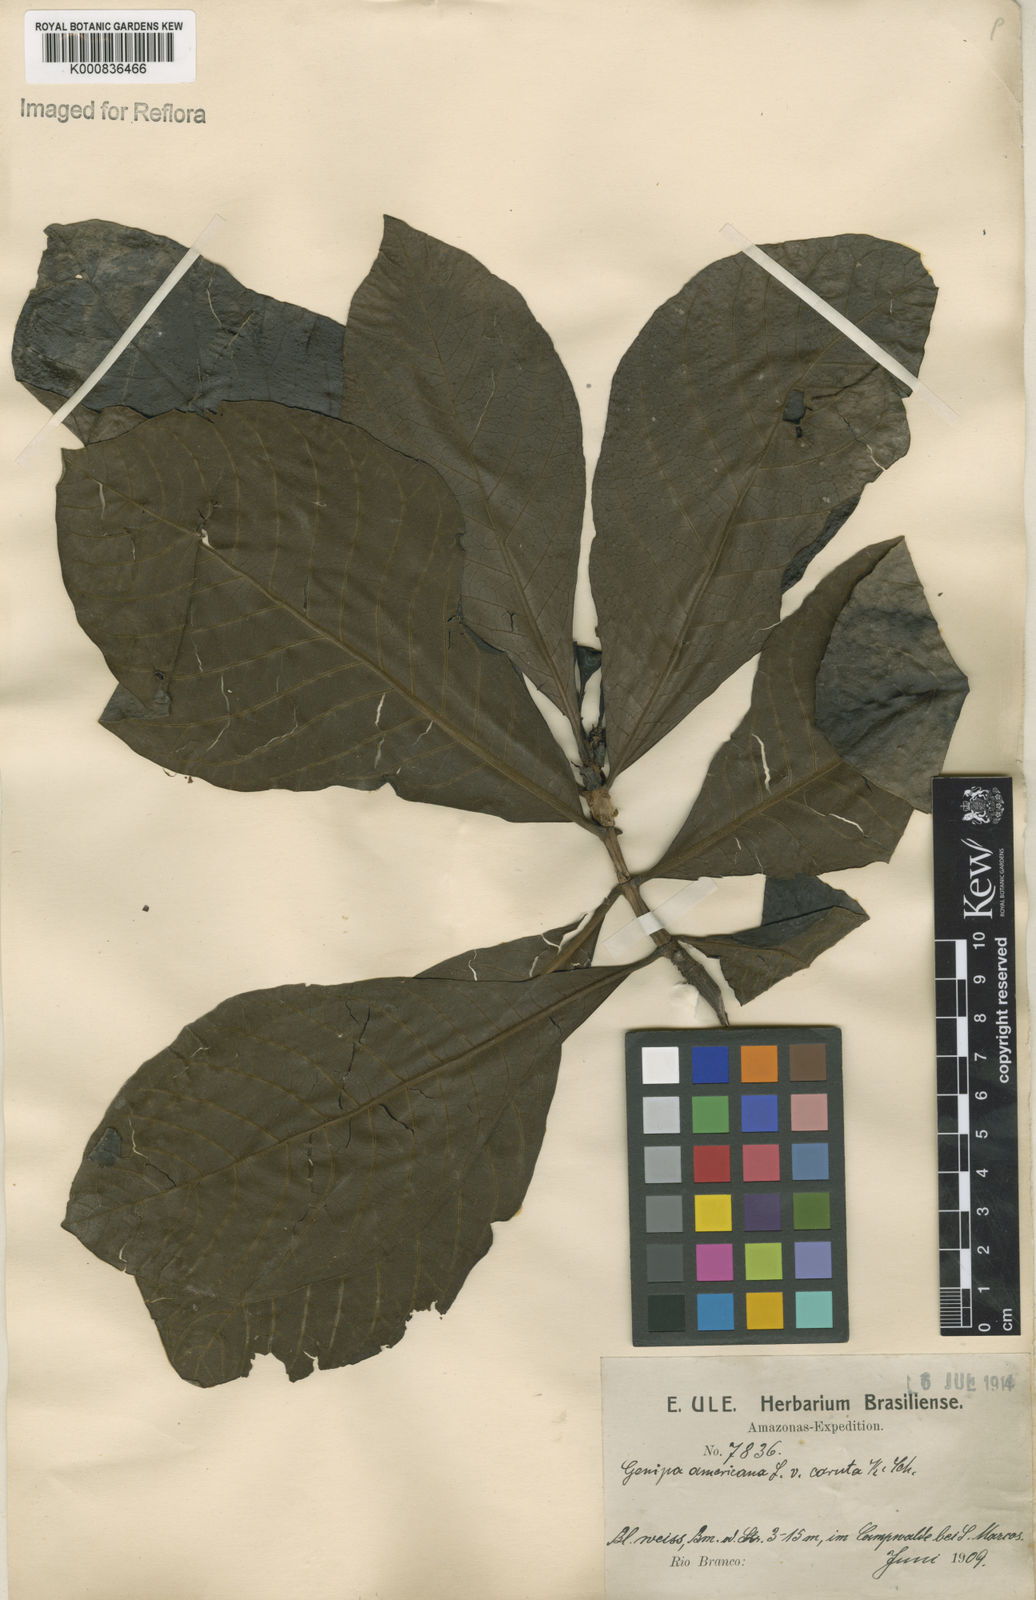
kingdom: Plantae
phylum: Tracheophyta
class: Magnoliopsida
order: Gentianales
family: Rubiaceae
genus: Genipa
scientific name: Genipa americana
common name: Genipap
